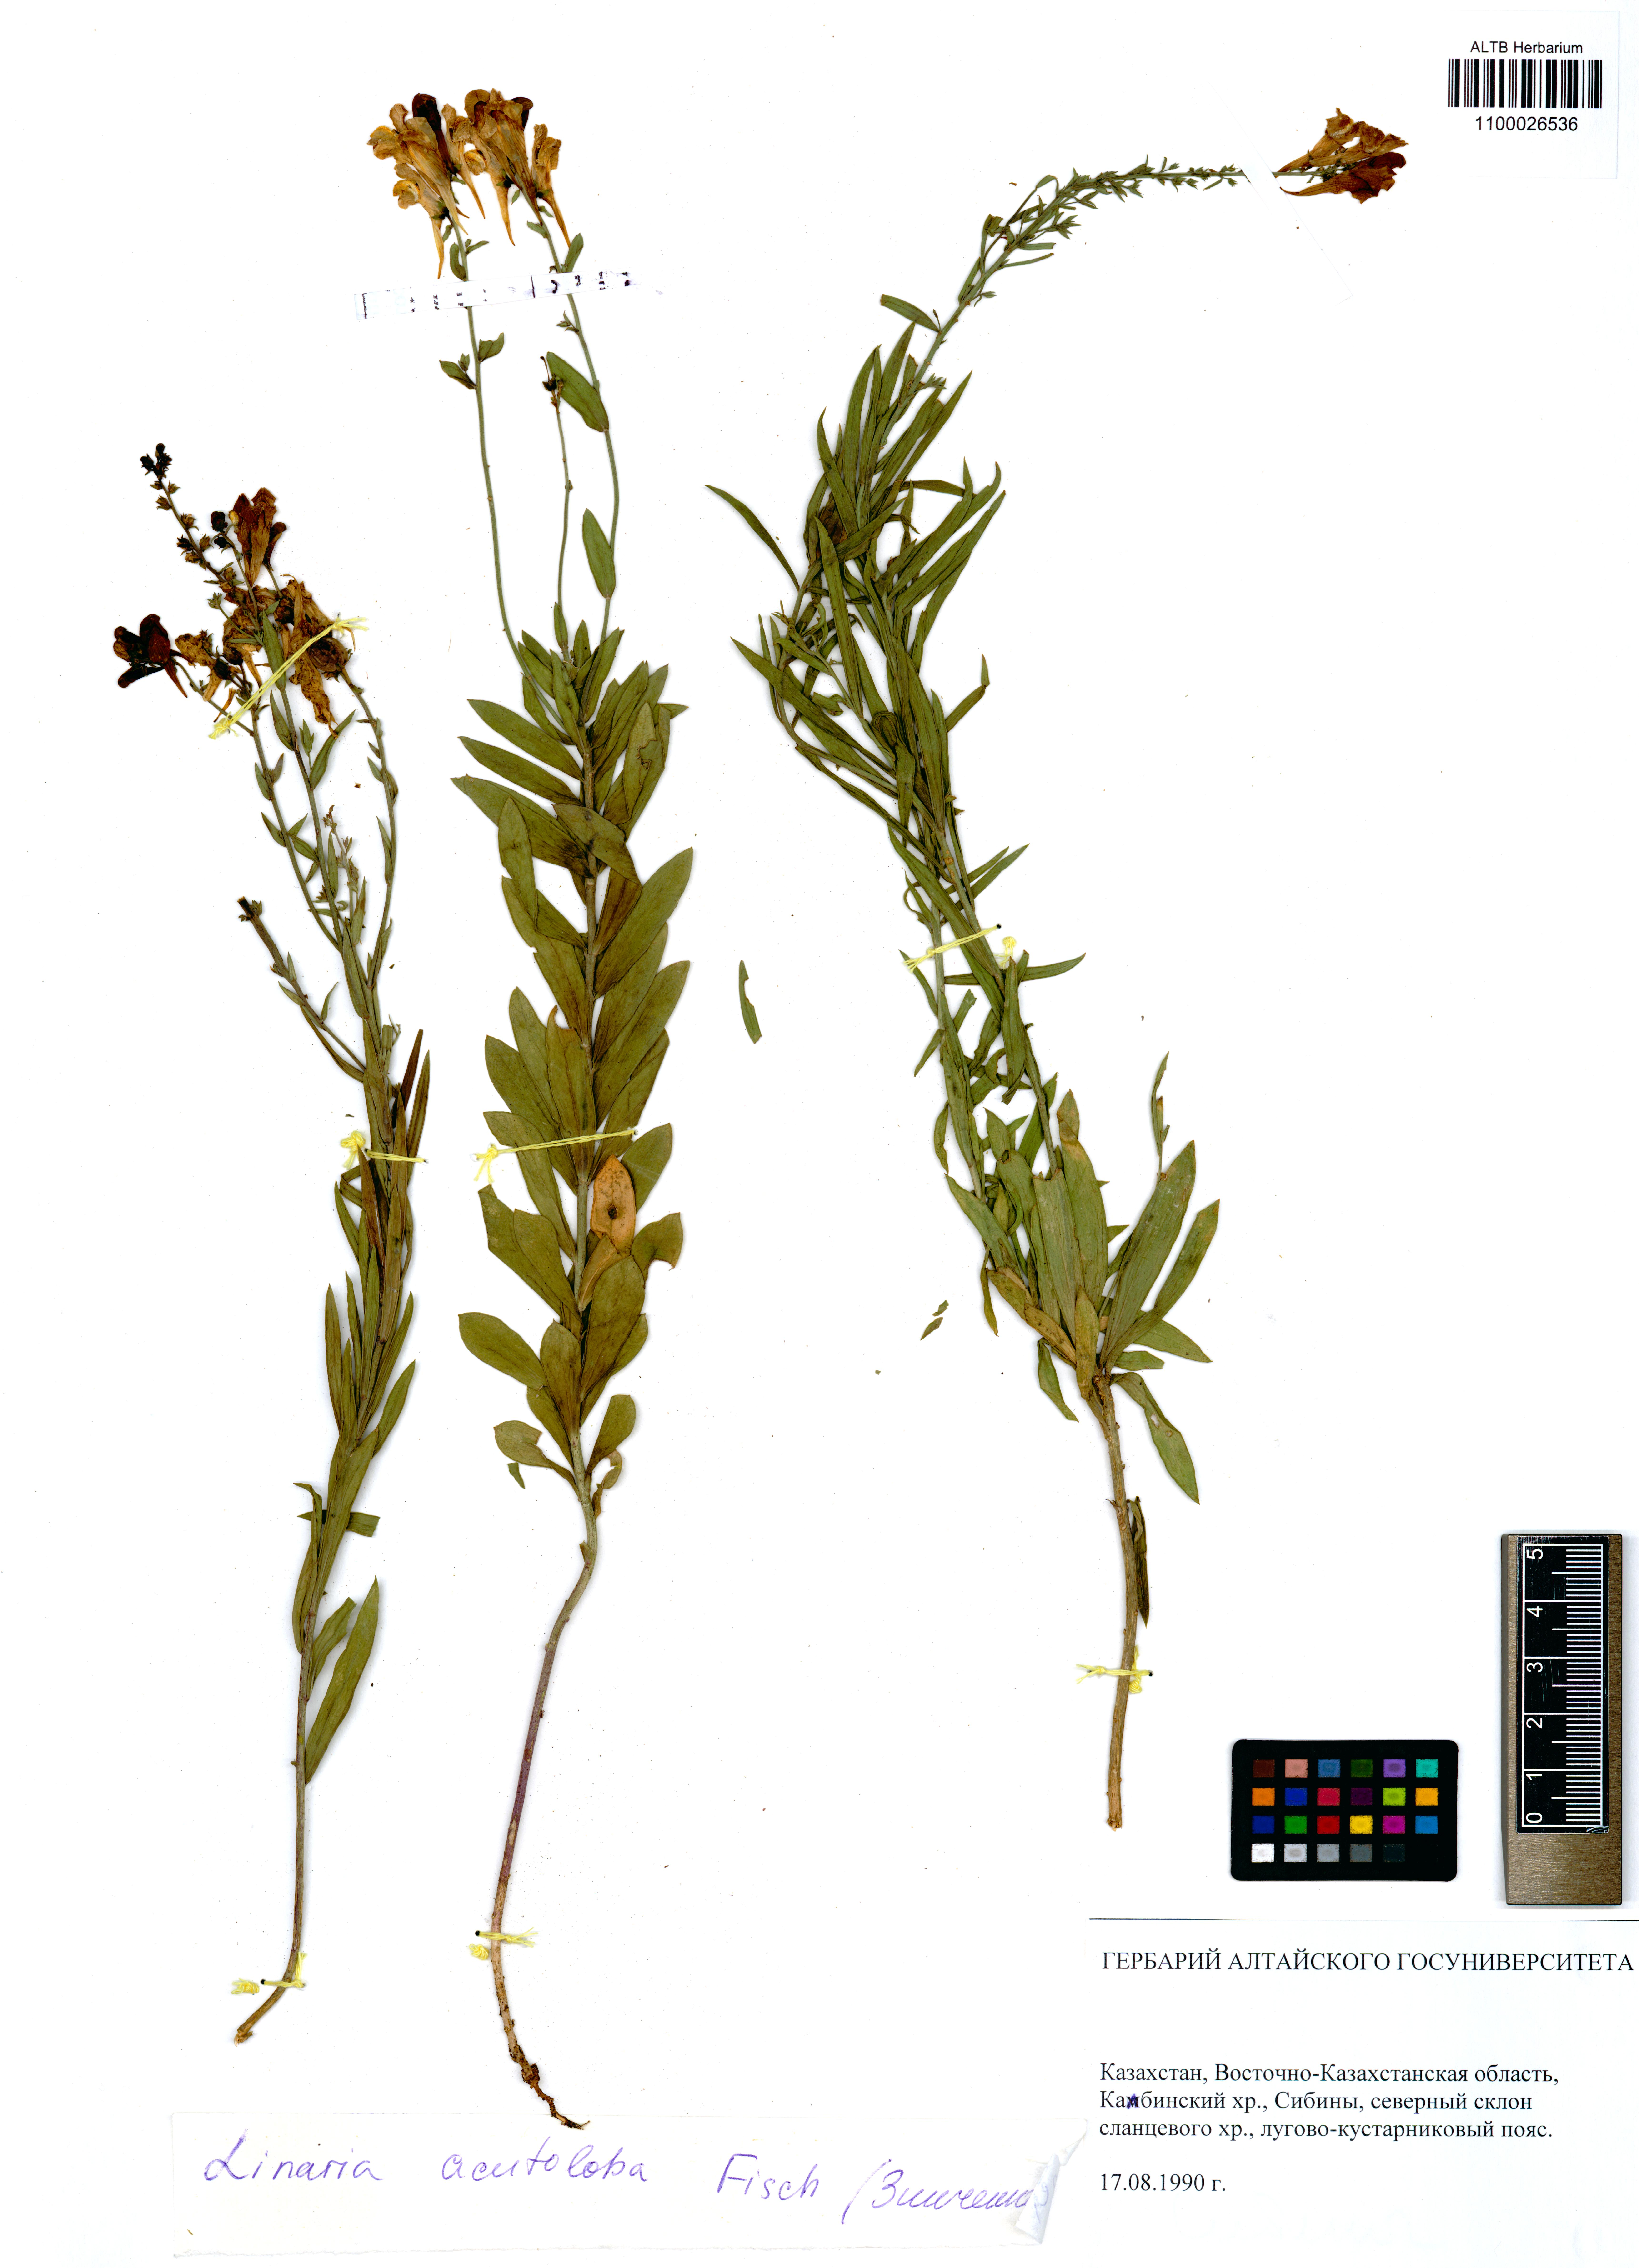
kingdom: Plantae
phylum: Tracheophyta
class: Magnoliopsida
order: Lamiales
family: Plantaginaceae
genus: Linaria
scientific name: Linaria acutiloba
